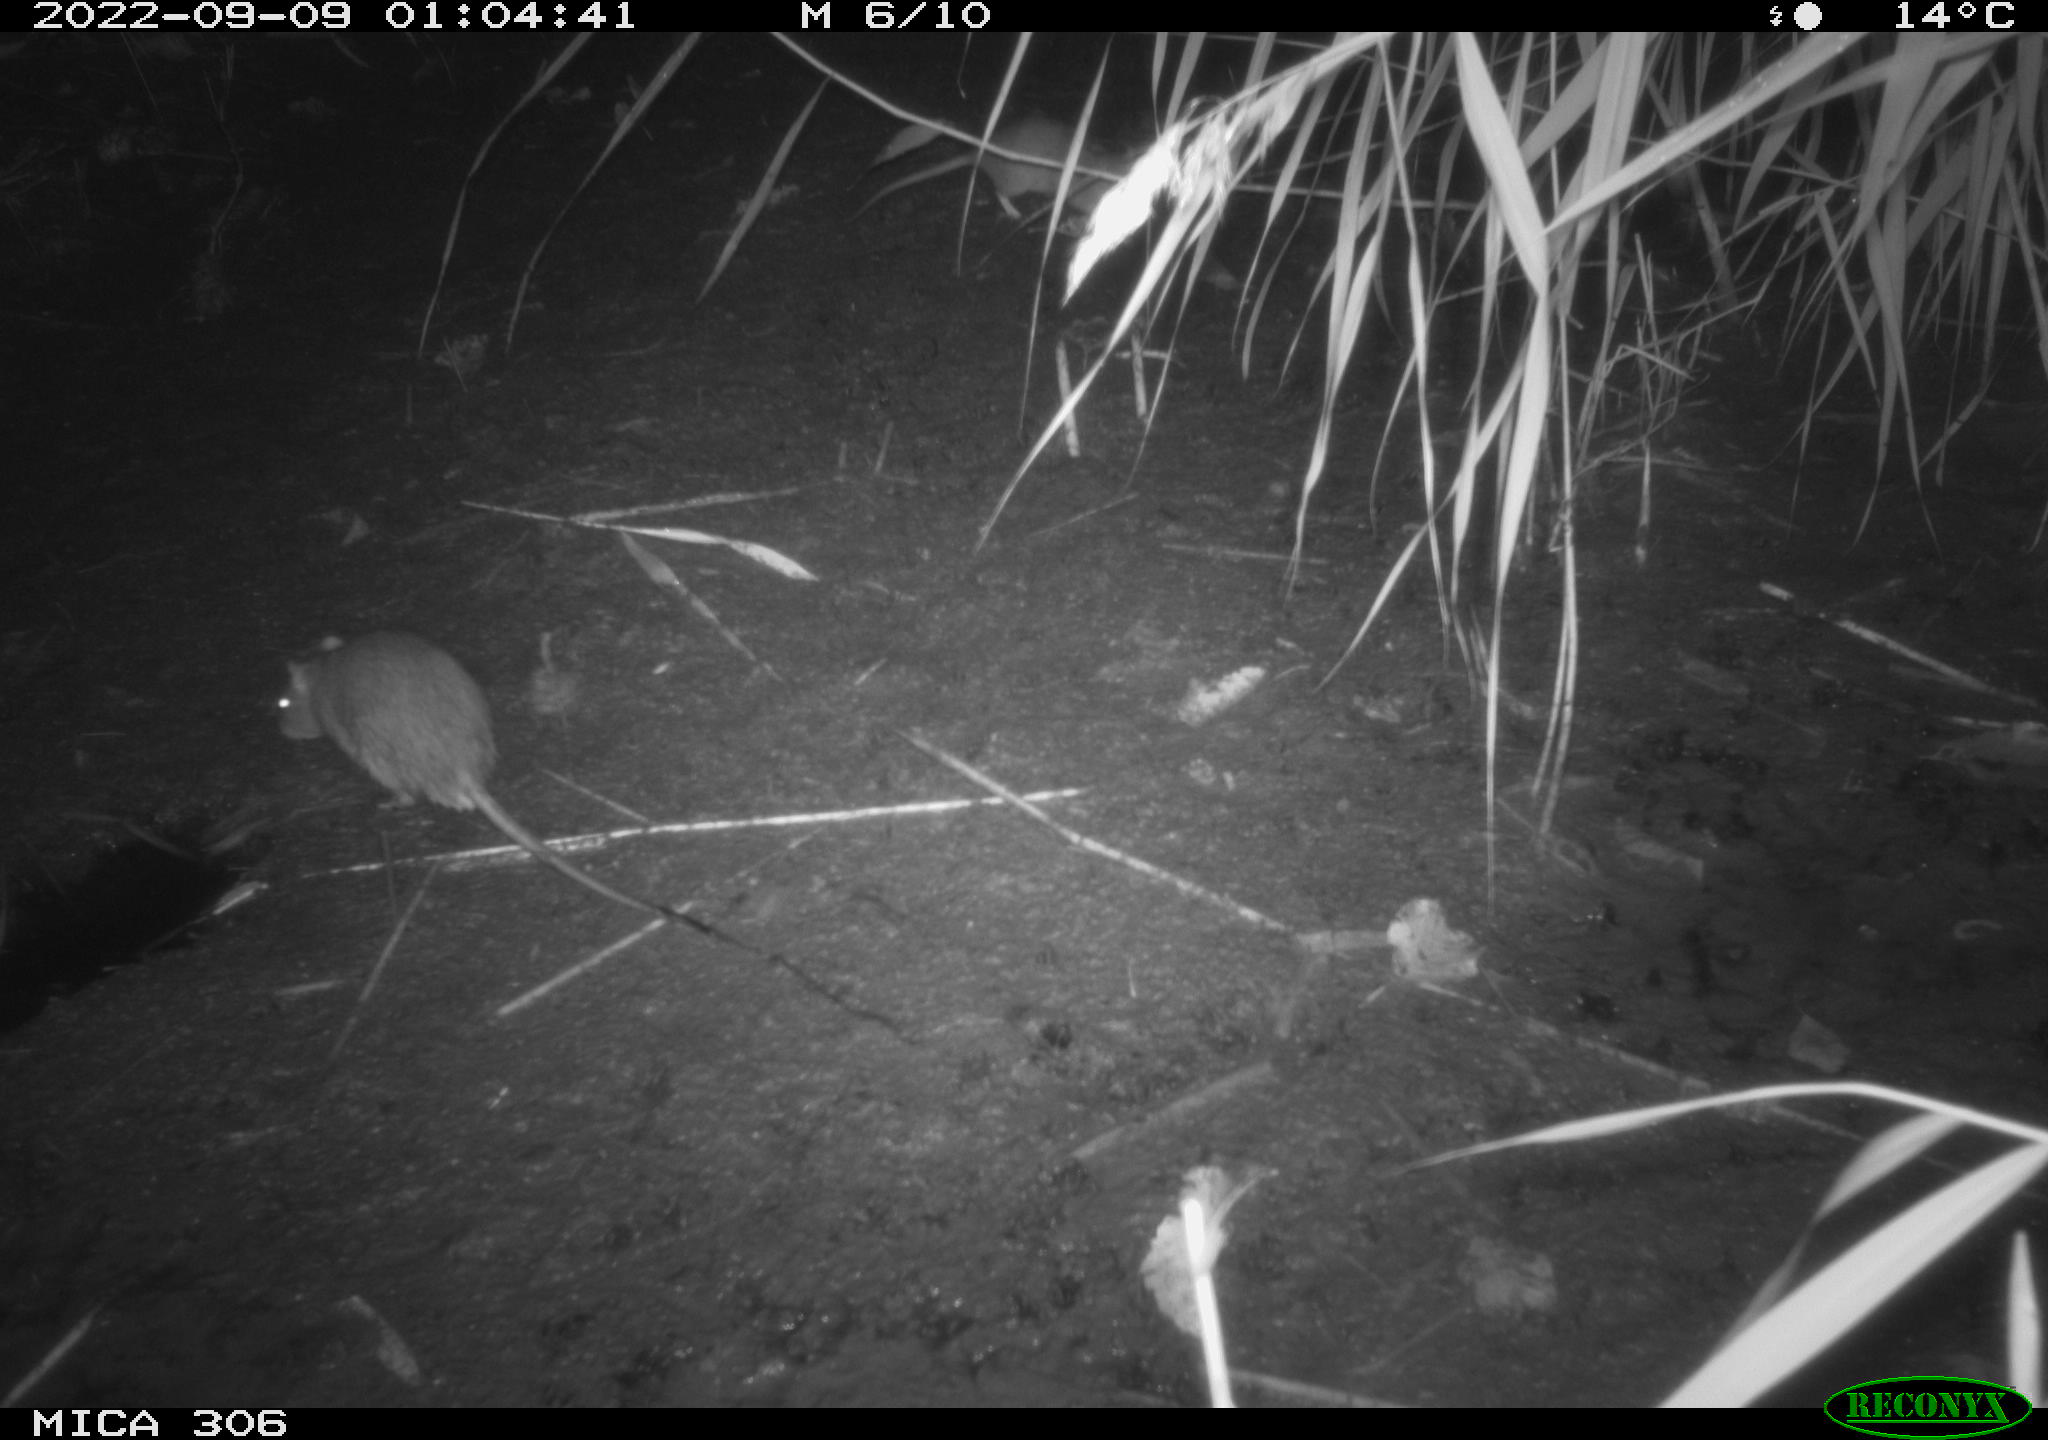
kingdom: Animalia
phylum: Chordata
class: Mammalia
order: Rodentia
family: Muridae
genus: Rattus
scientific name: Rattus norvegicus
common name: Brown rat
